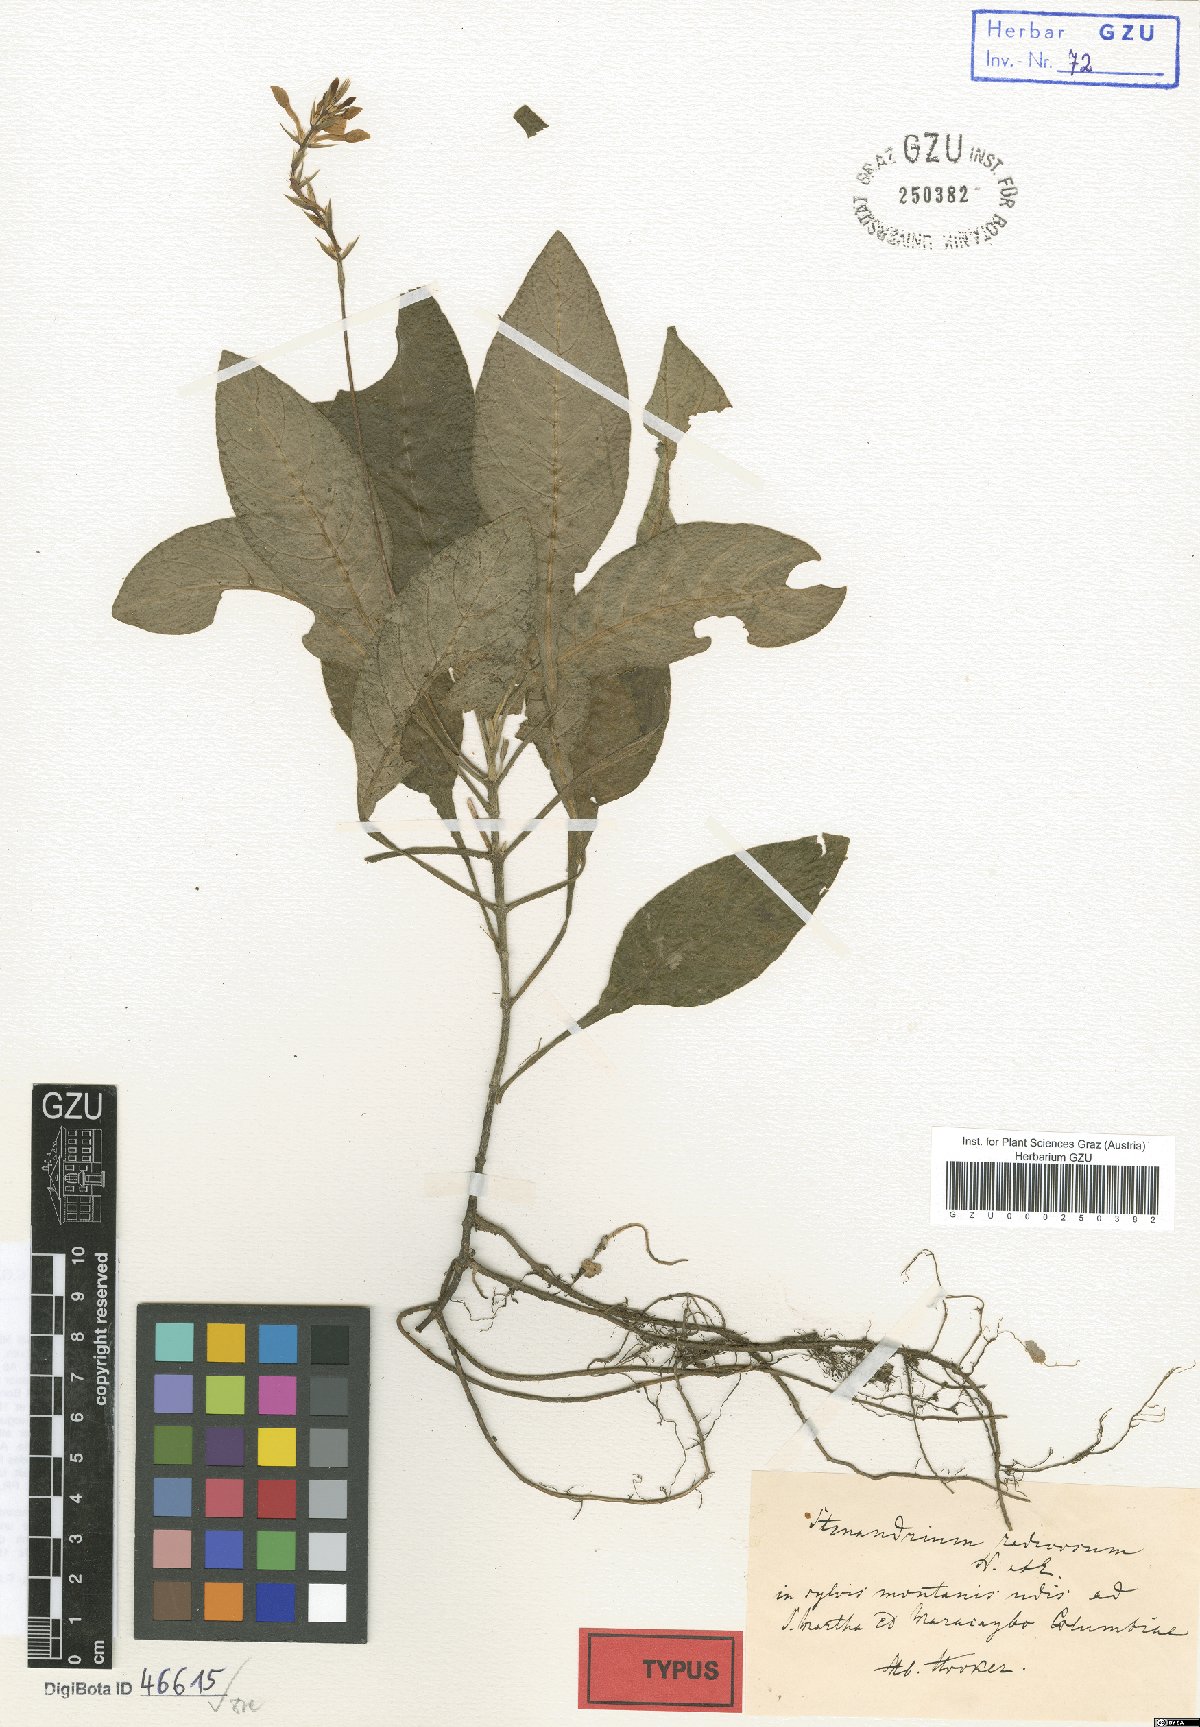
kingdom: Plantae
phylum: Tracheophyta
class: Magnoliopsida
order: Lamiales
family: Acanthaceae
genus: Stenandrium
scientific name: Stenandrium radicosum
